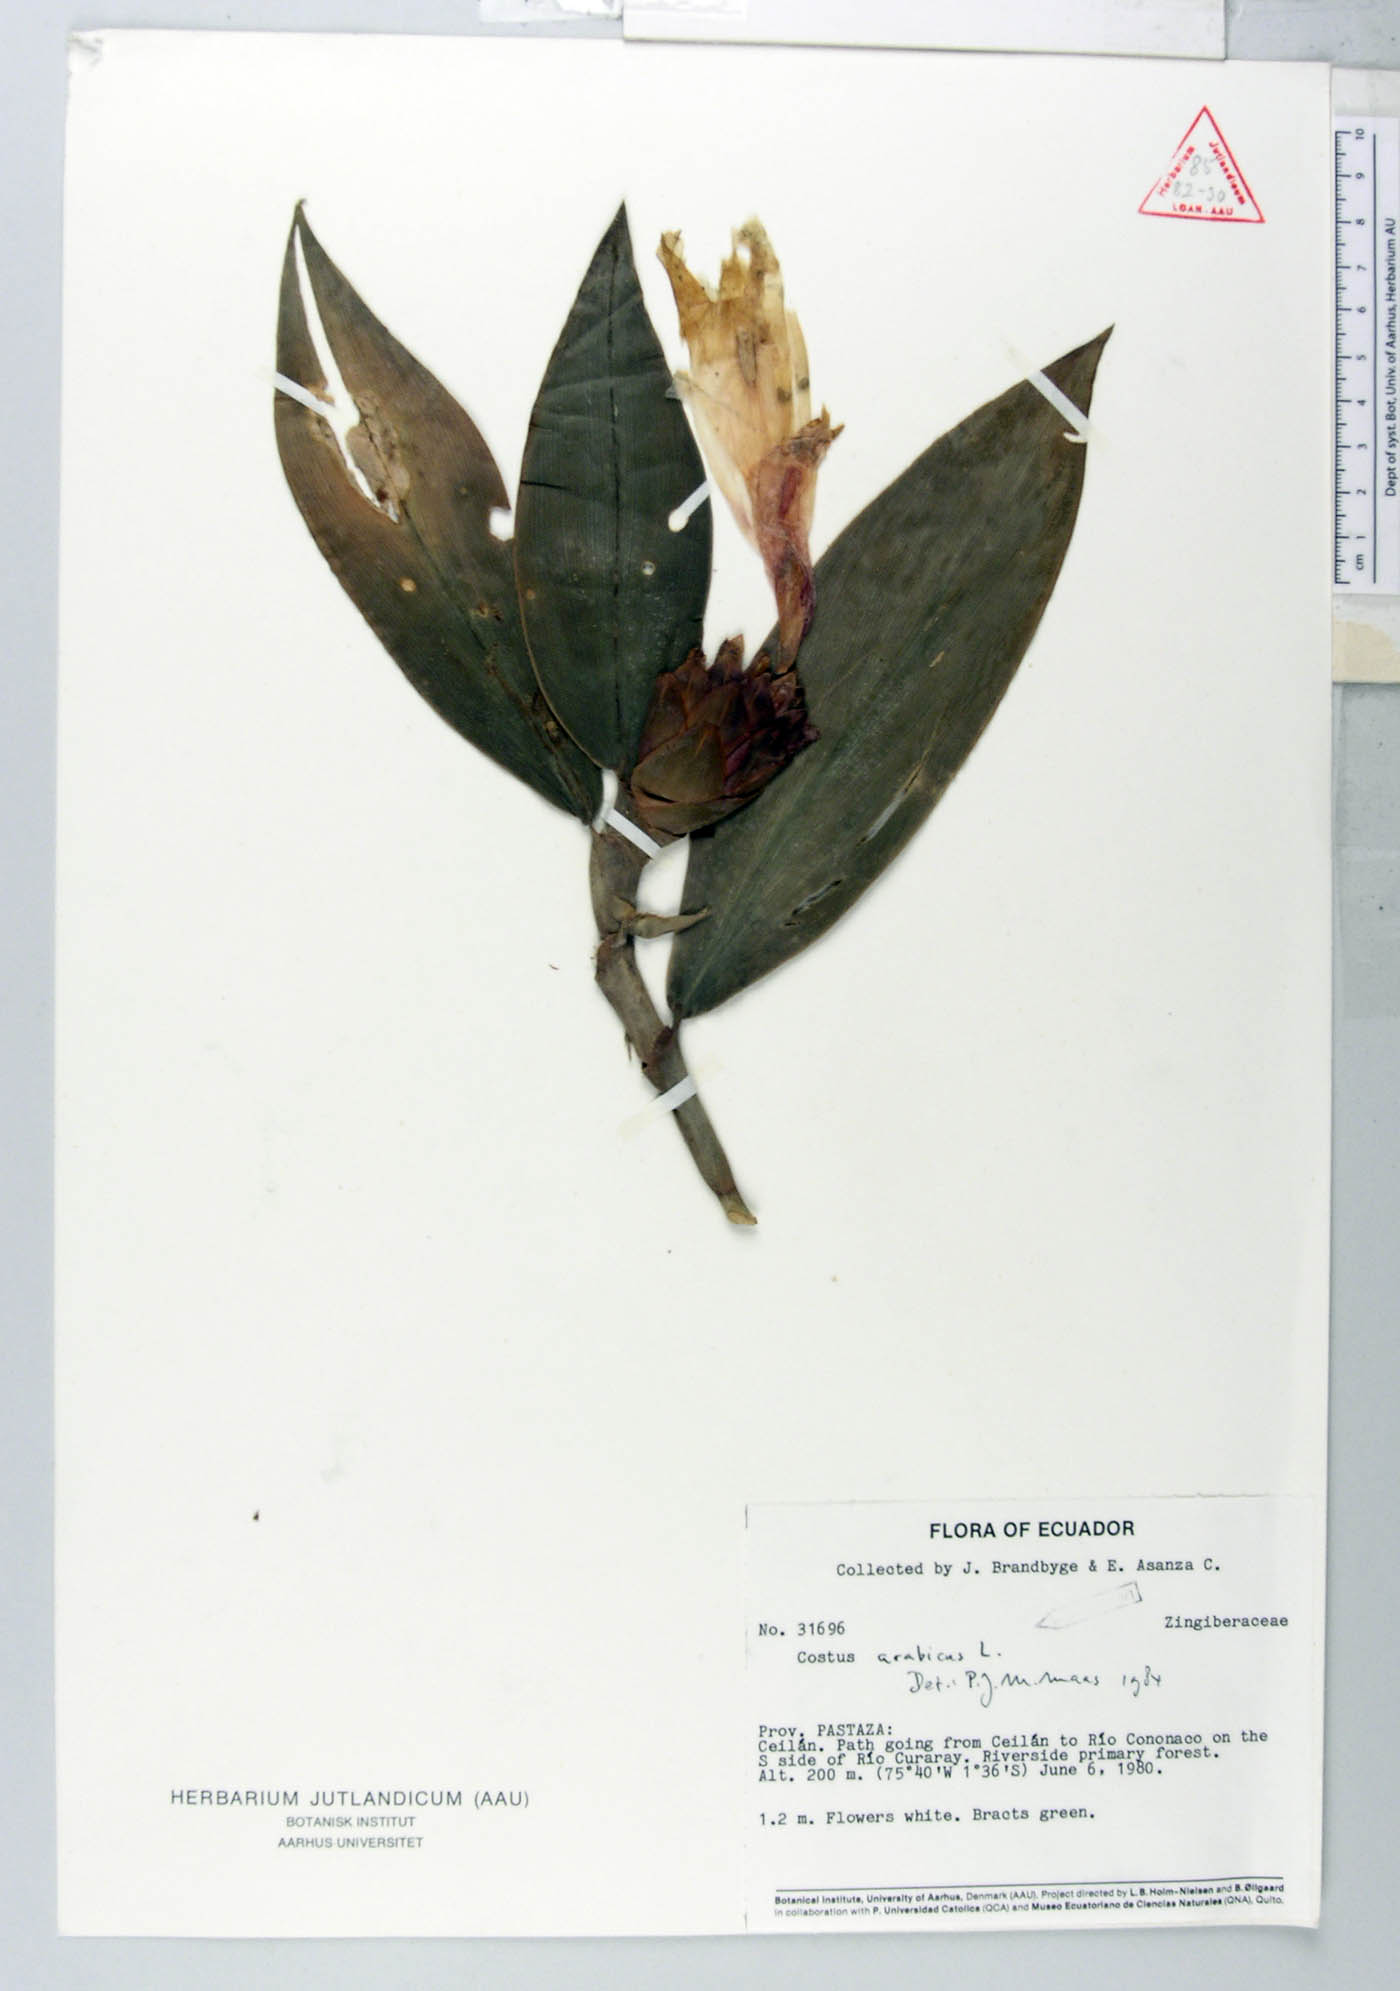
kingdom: Plantae
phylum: Tracheophyta
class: Liliopsida
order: Zingiberales
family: Costaceae
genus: Costus
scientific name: Costus arabicus
